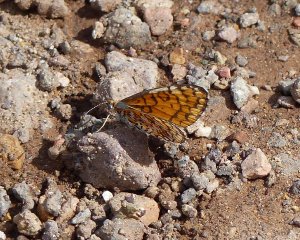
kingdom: Animalia
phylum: Arthropoda
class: Insecta
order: Lepidoptera
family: Nymphalidae
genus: Dymasia
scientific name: Dymasia dymas
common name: Tiny Checkerspot
